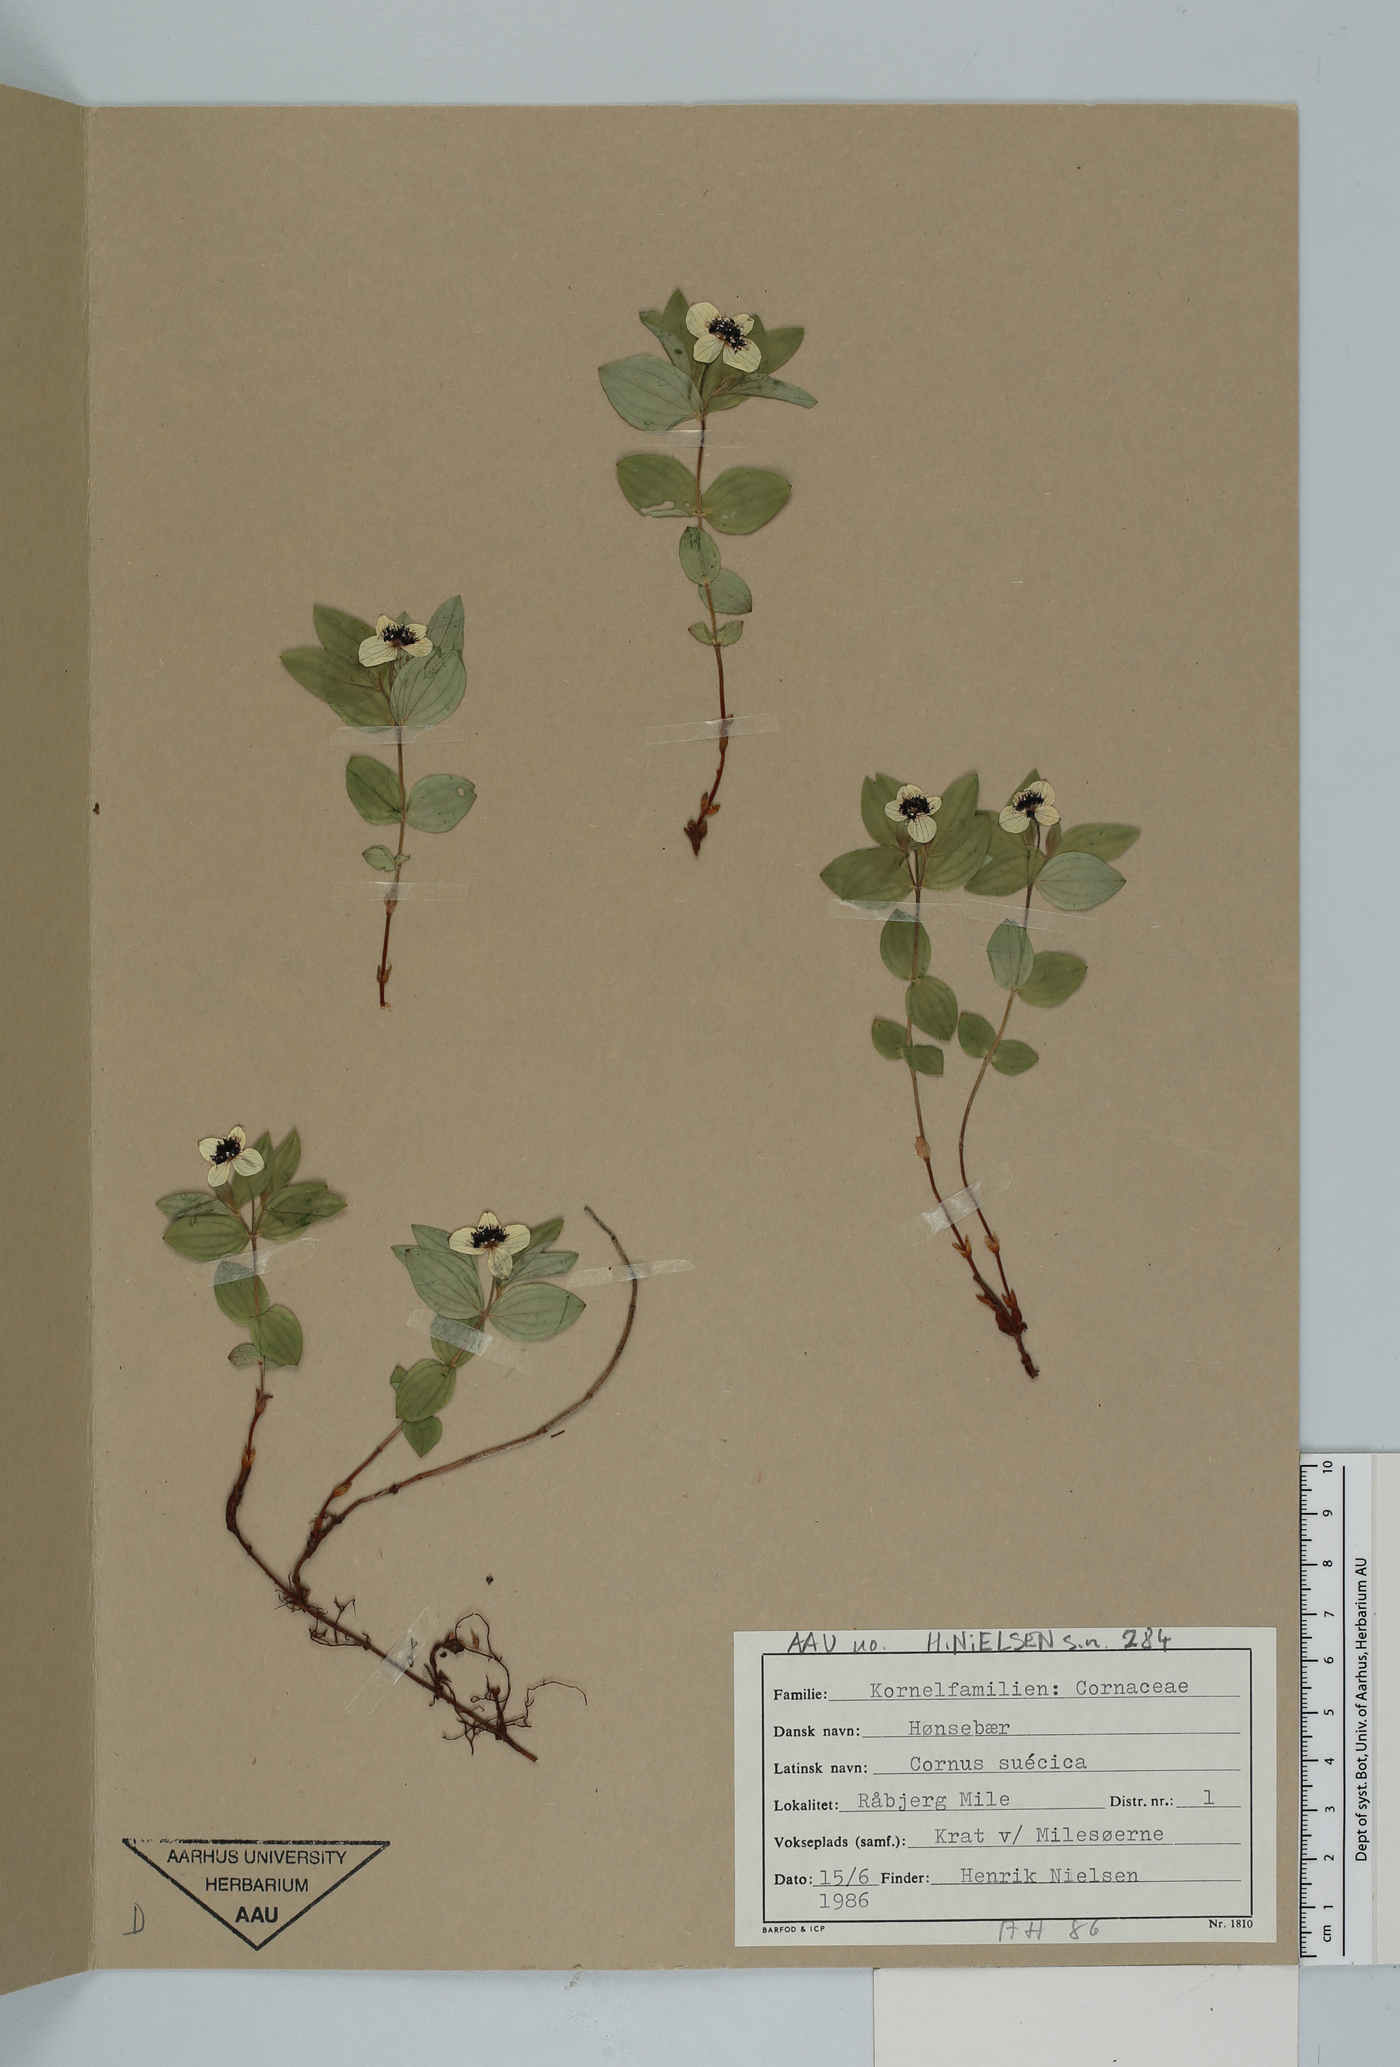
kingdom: Plantae
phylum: Tracheophyta
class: Magnoliopsida
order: Cornales
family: Cornaceae
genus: Cornus
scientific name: Cornus suecica
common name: Dwarf cornel
